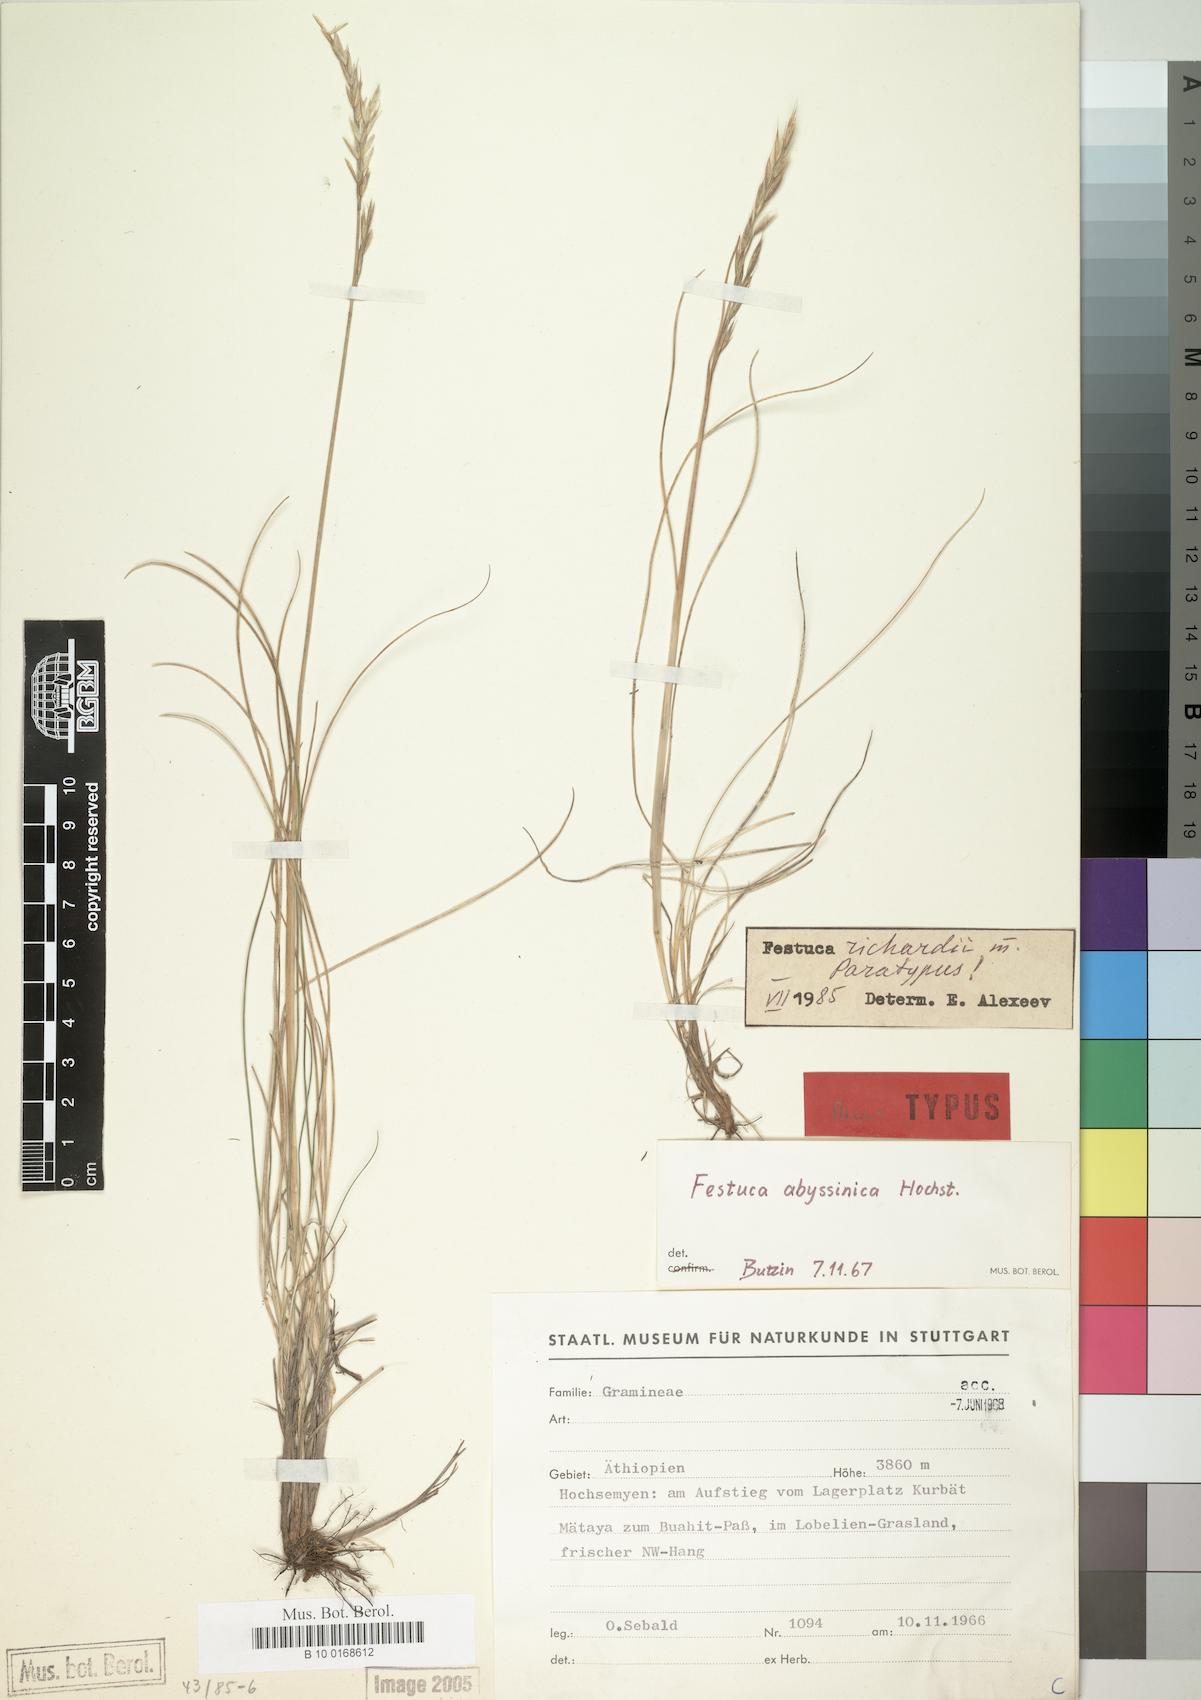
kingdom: Plantae
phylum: Tracheophyta
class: Liliopsida
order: Poales
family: Poaceae
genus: Festuca
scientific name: Festuca richardii
